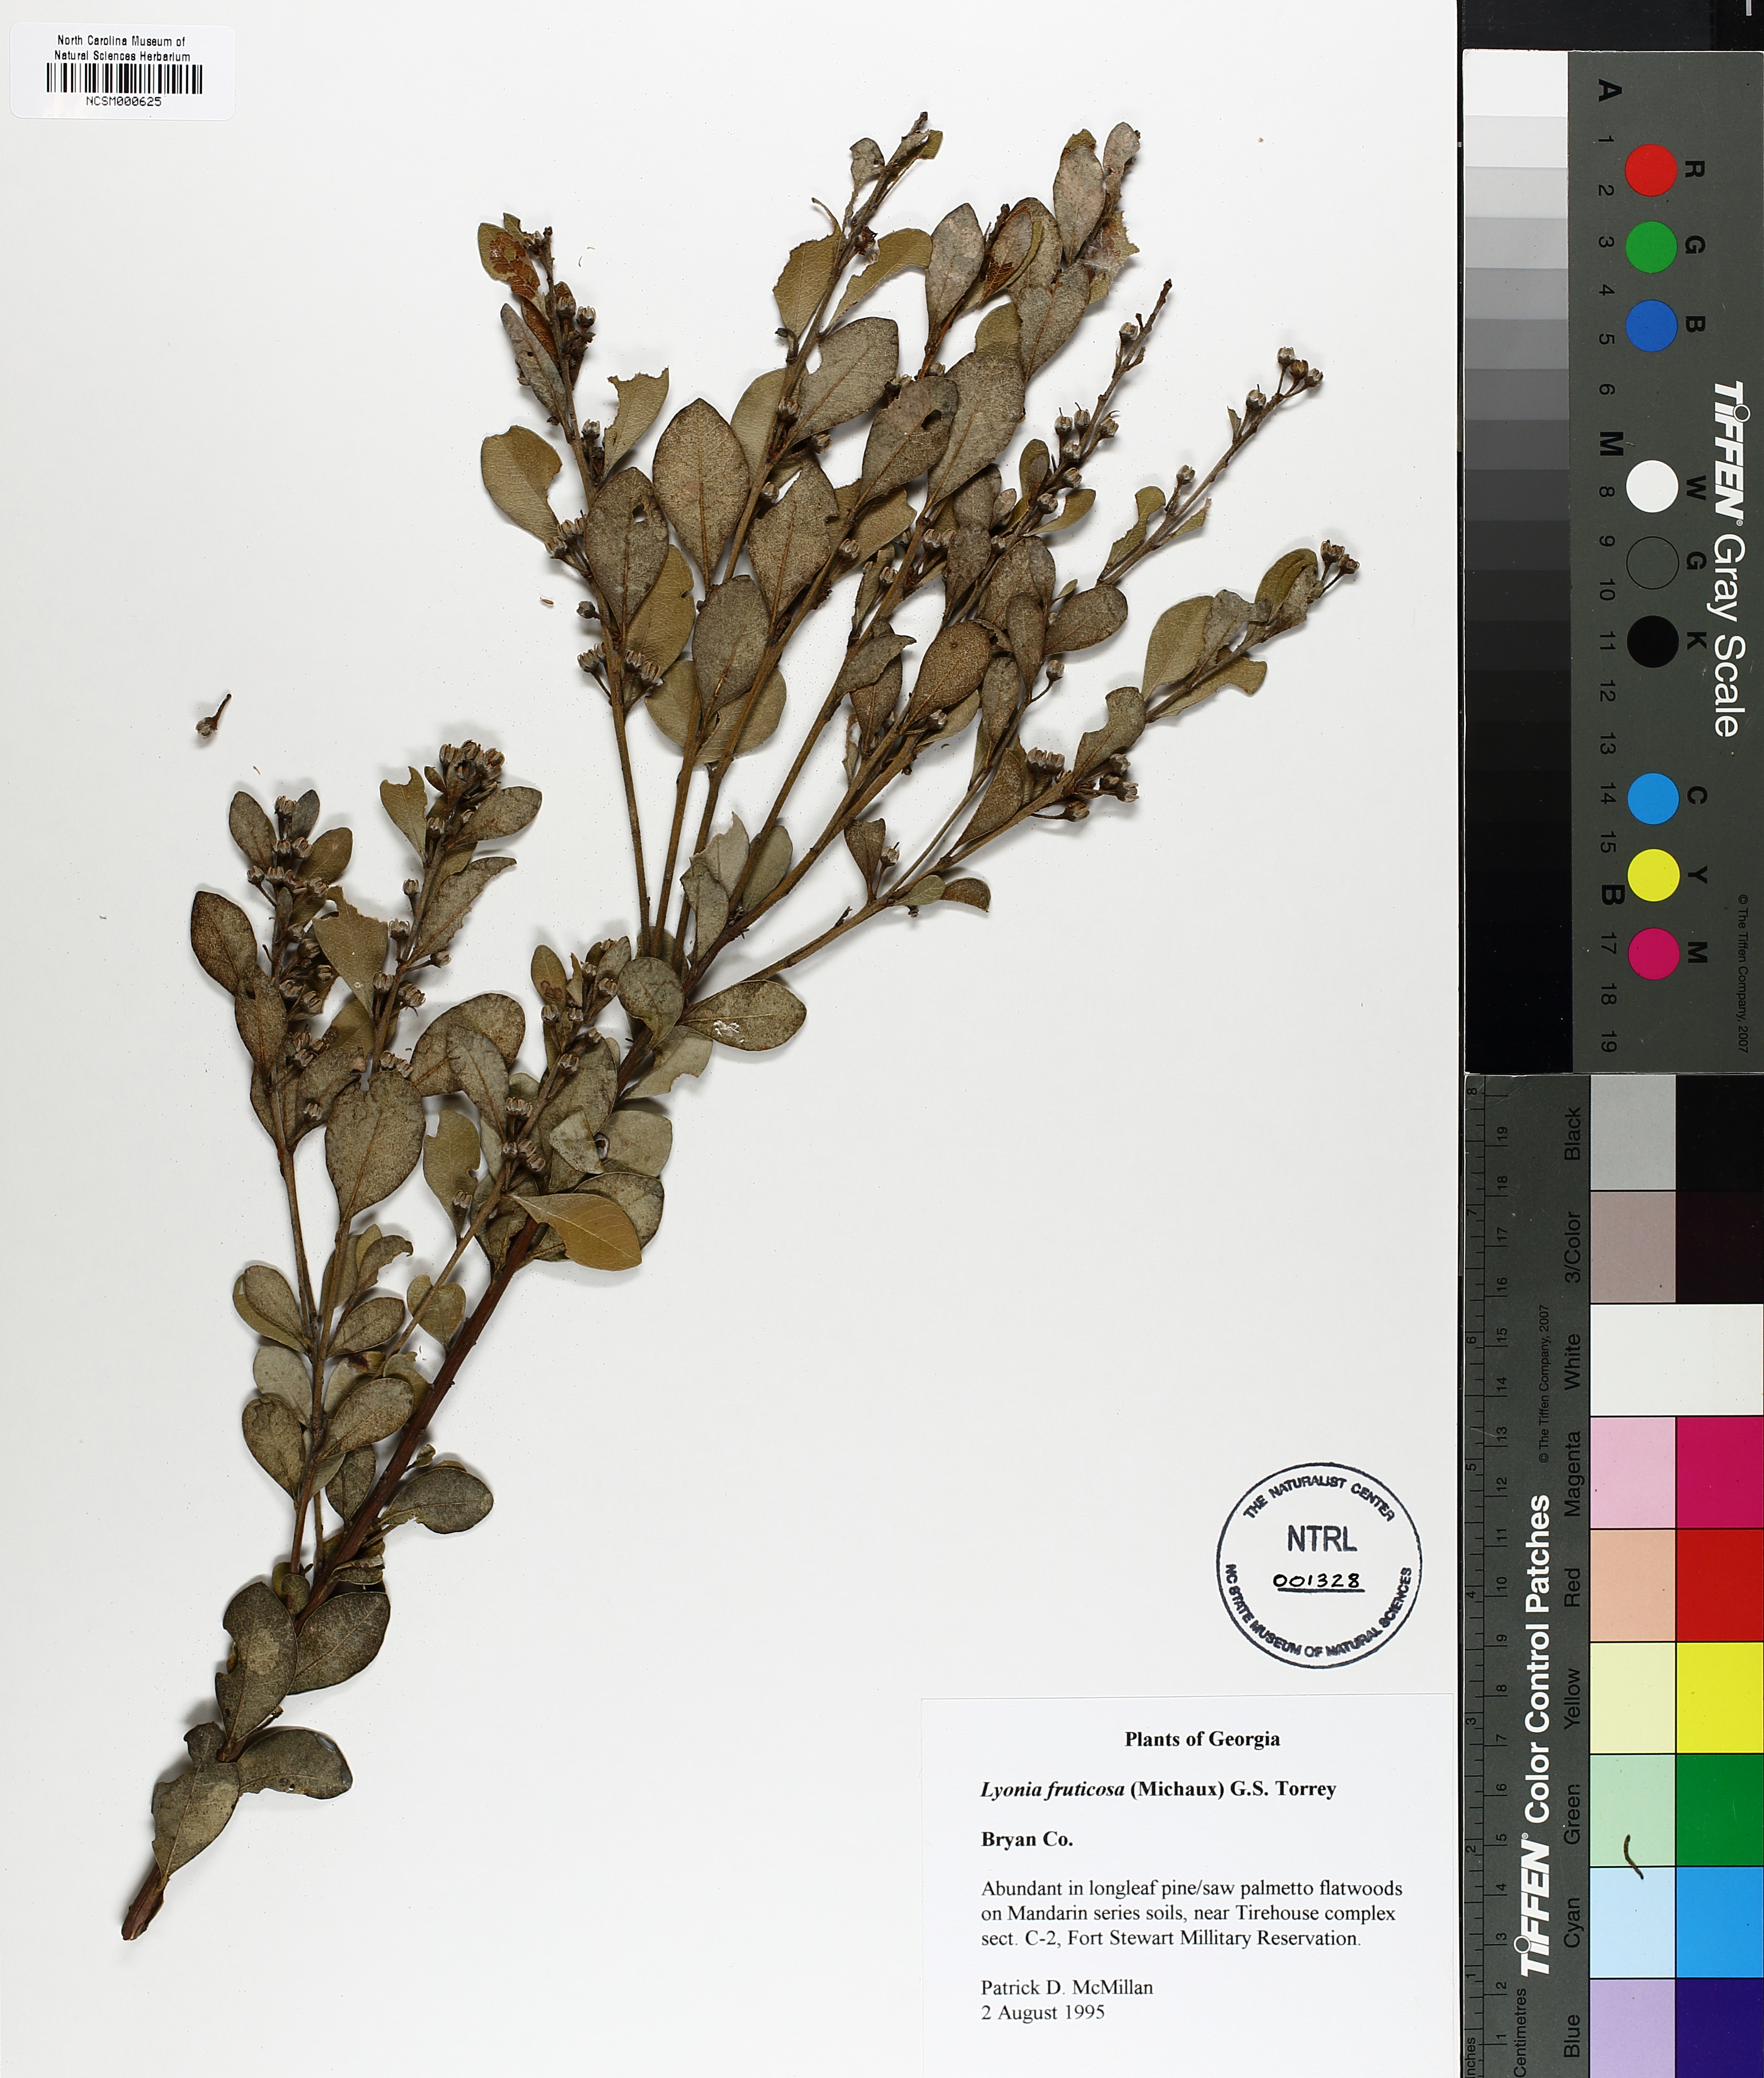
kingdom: Plantae
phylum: Tracheophyta
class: Magnoliopsida
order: Ericales
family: Ericaceae
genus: Lyonia
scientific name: Lyonia fruticosa
